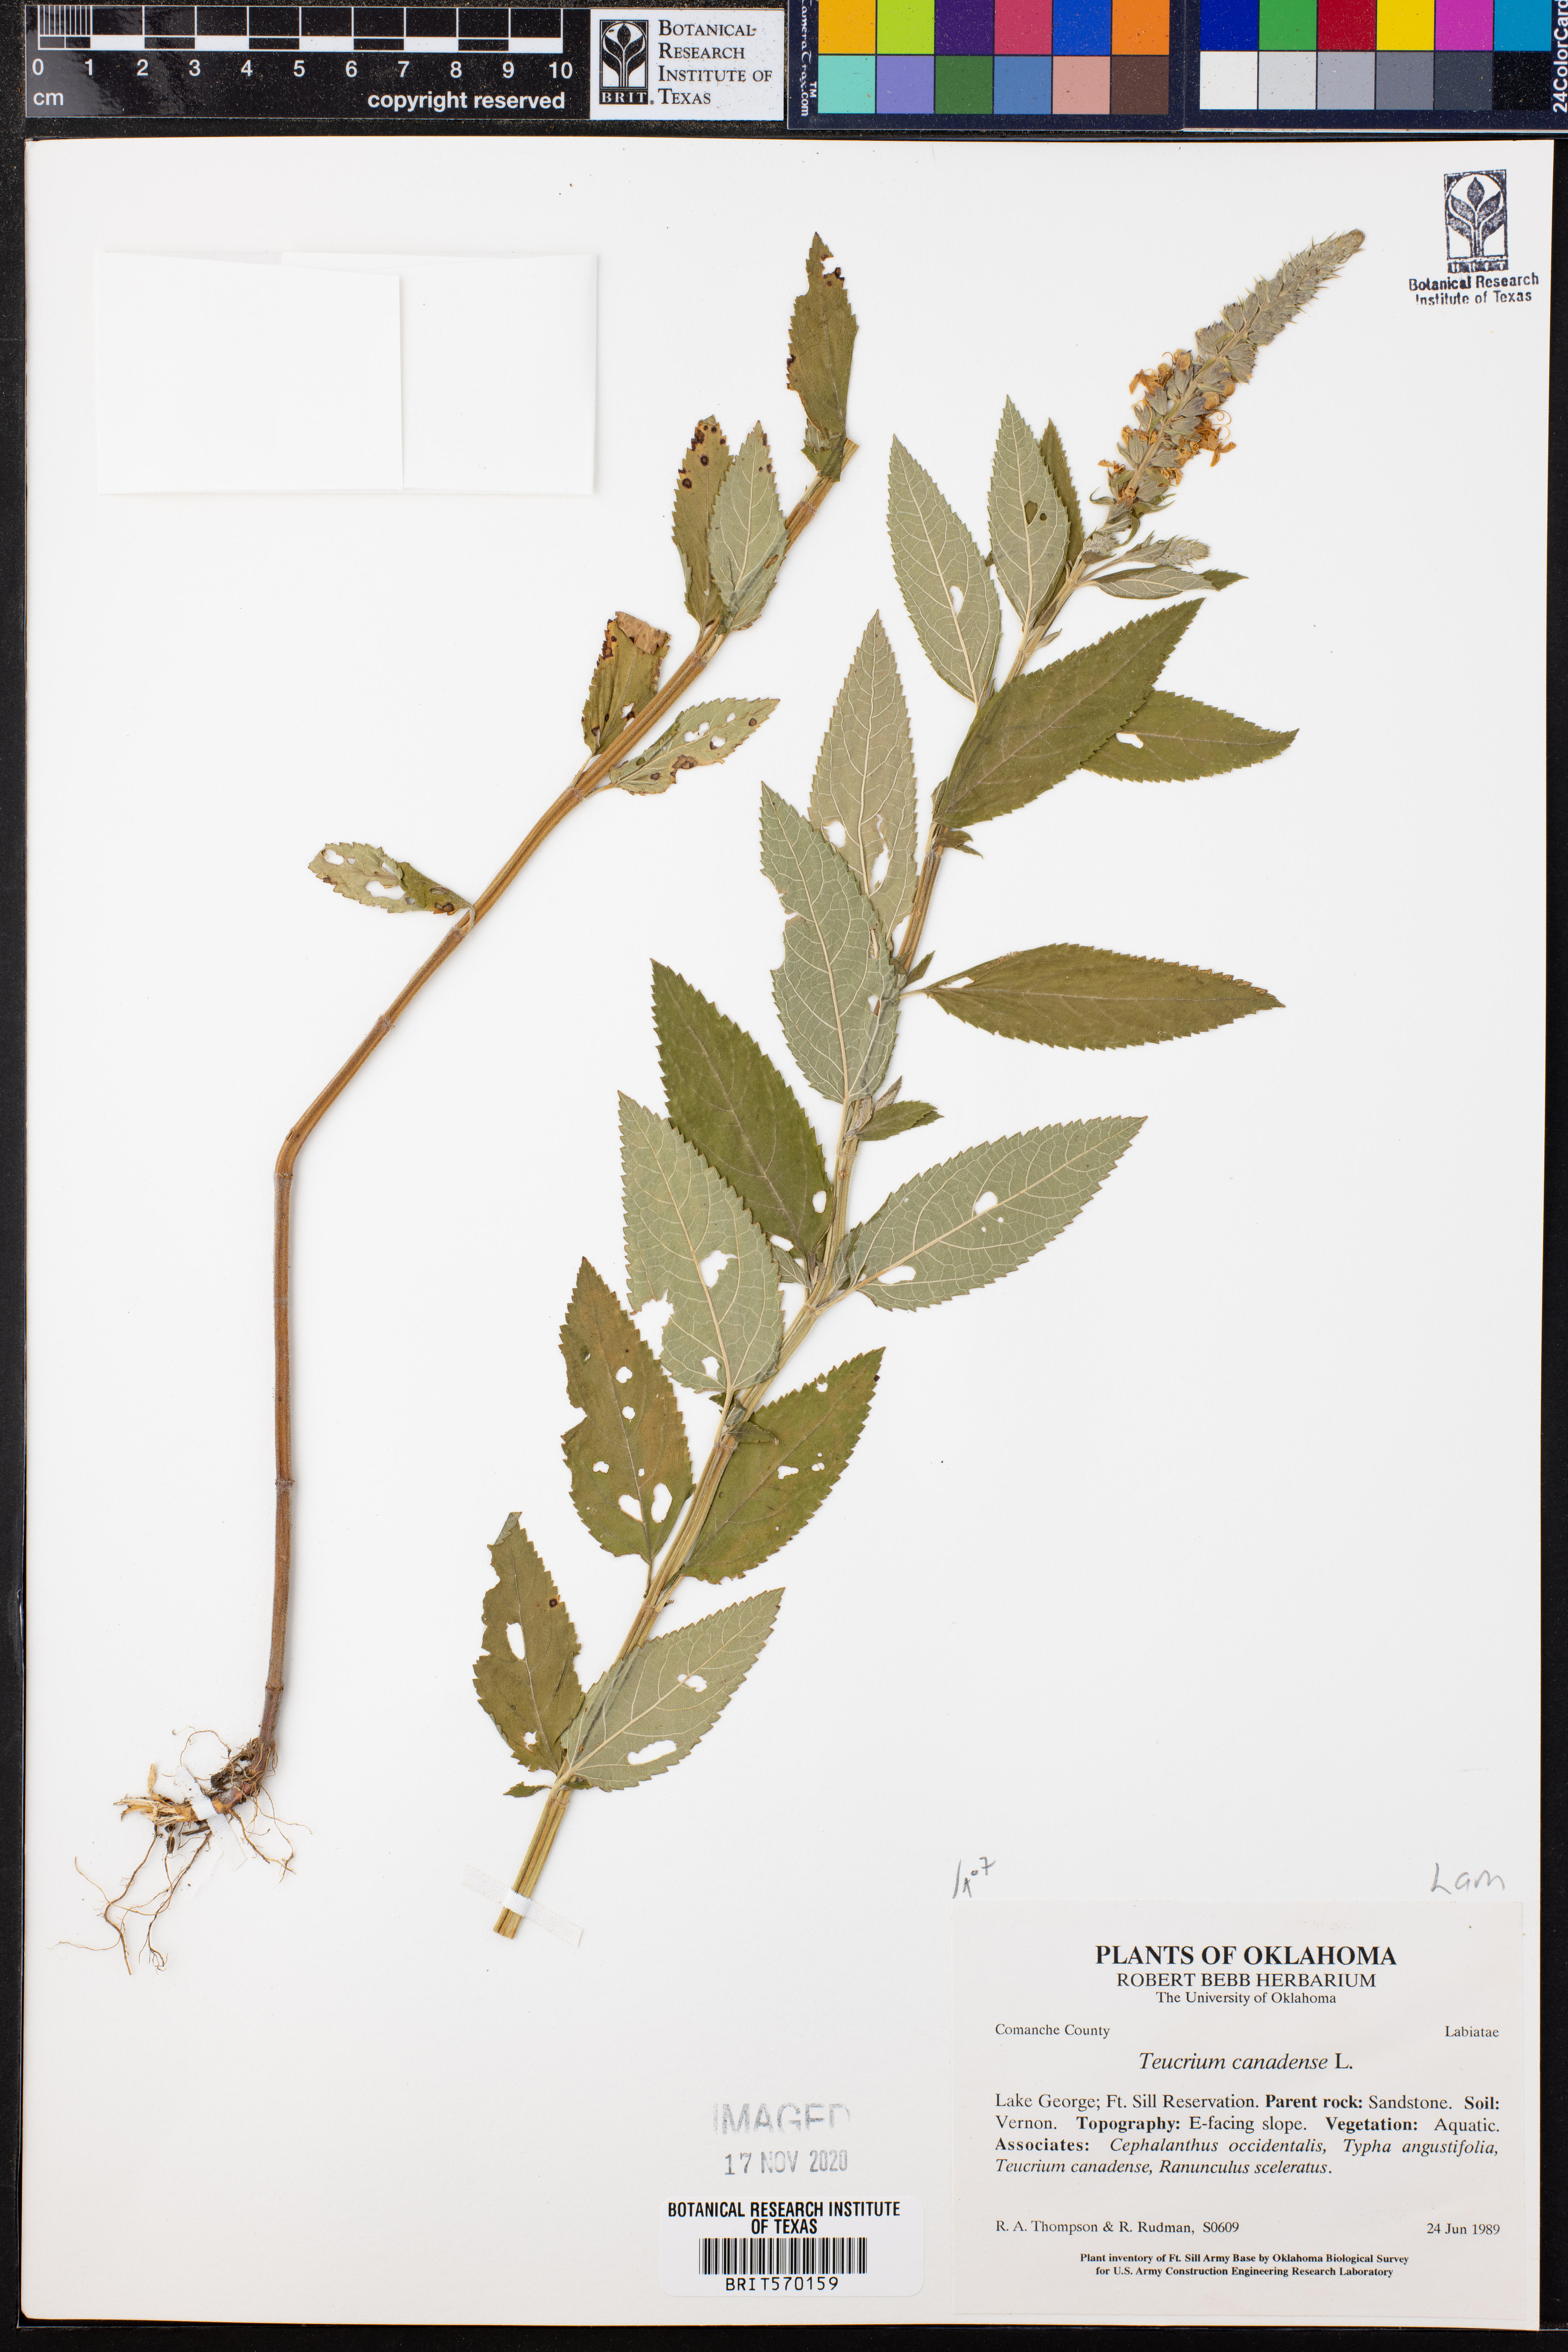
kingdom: Plantae
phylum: Tracheophyta
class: Magnoliopsida
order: Lamiales
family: Lamiaceae
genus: Teucrium
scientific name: Teucrium canadense
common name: American germander
